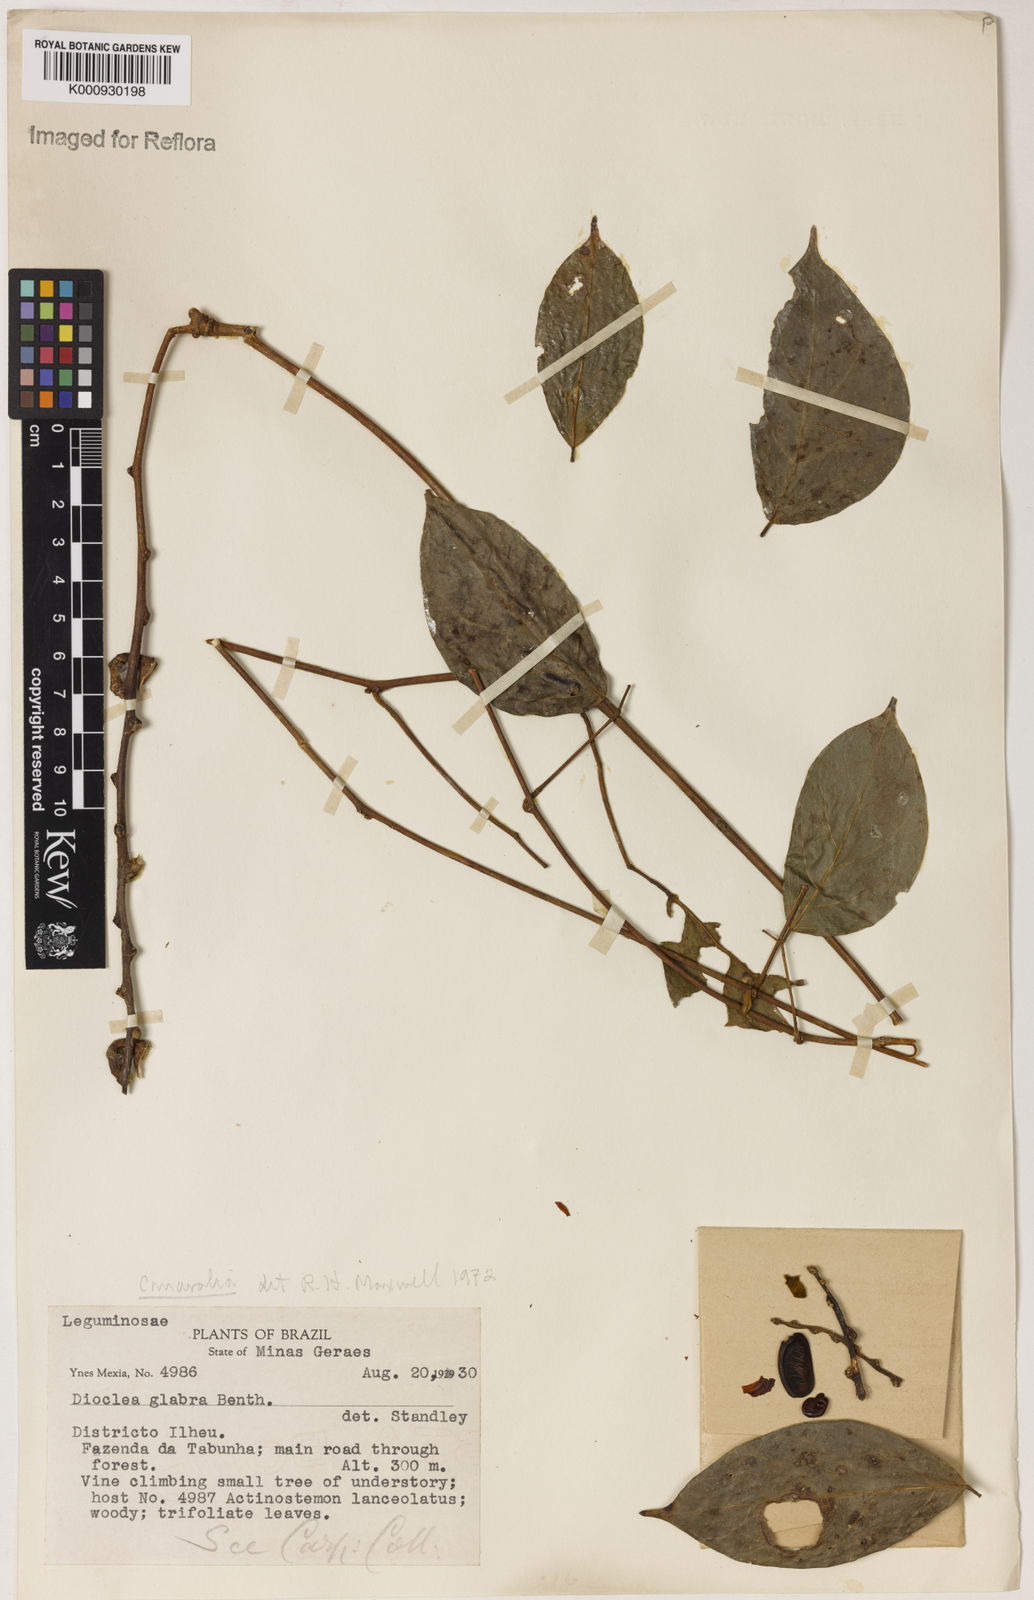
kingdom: Plantae
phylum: Tracheophyta
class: Magnoliopsida
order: Fabales
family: Fabaceae
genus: Canavalia
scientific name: Canavalia
